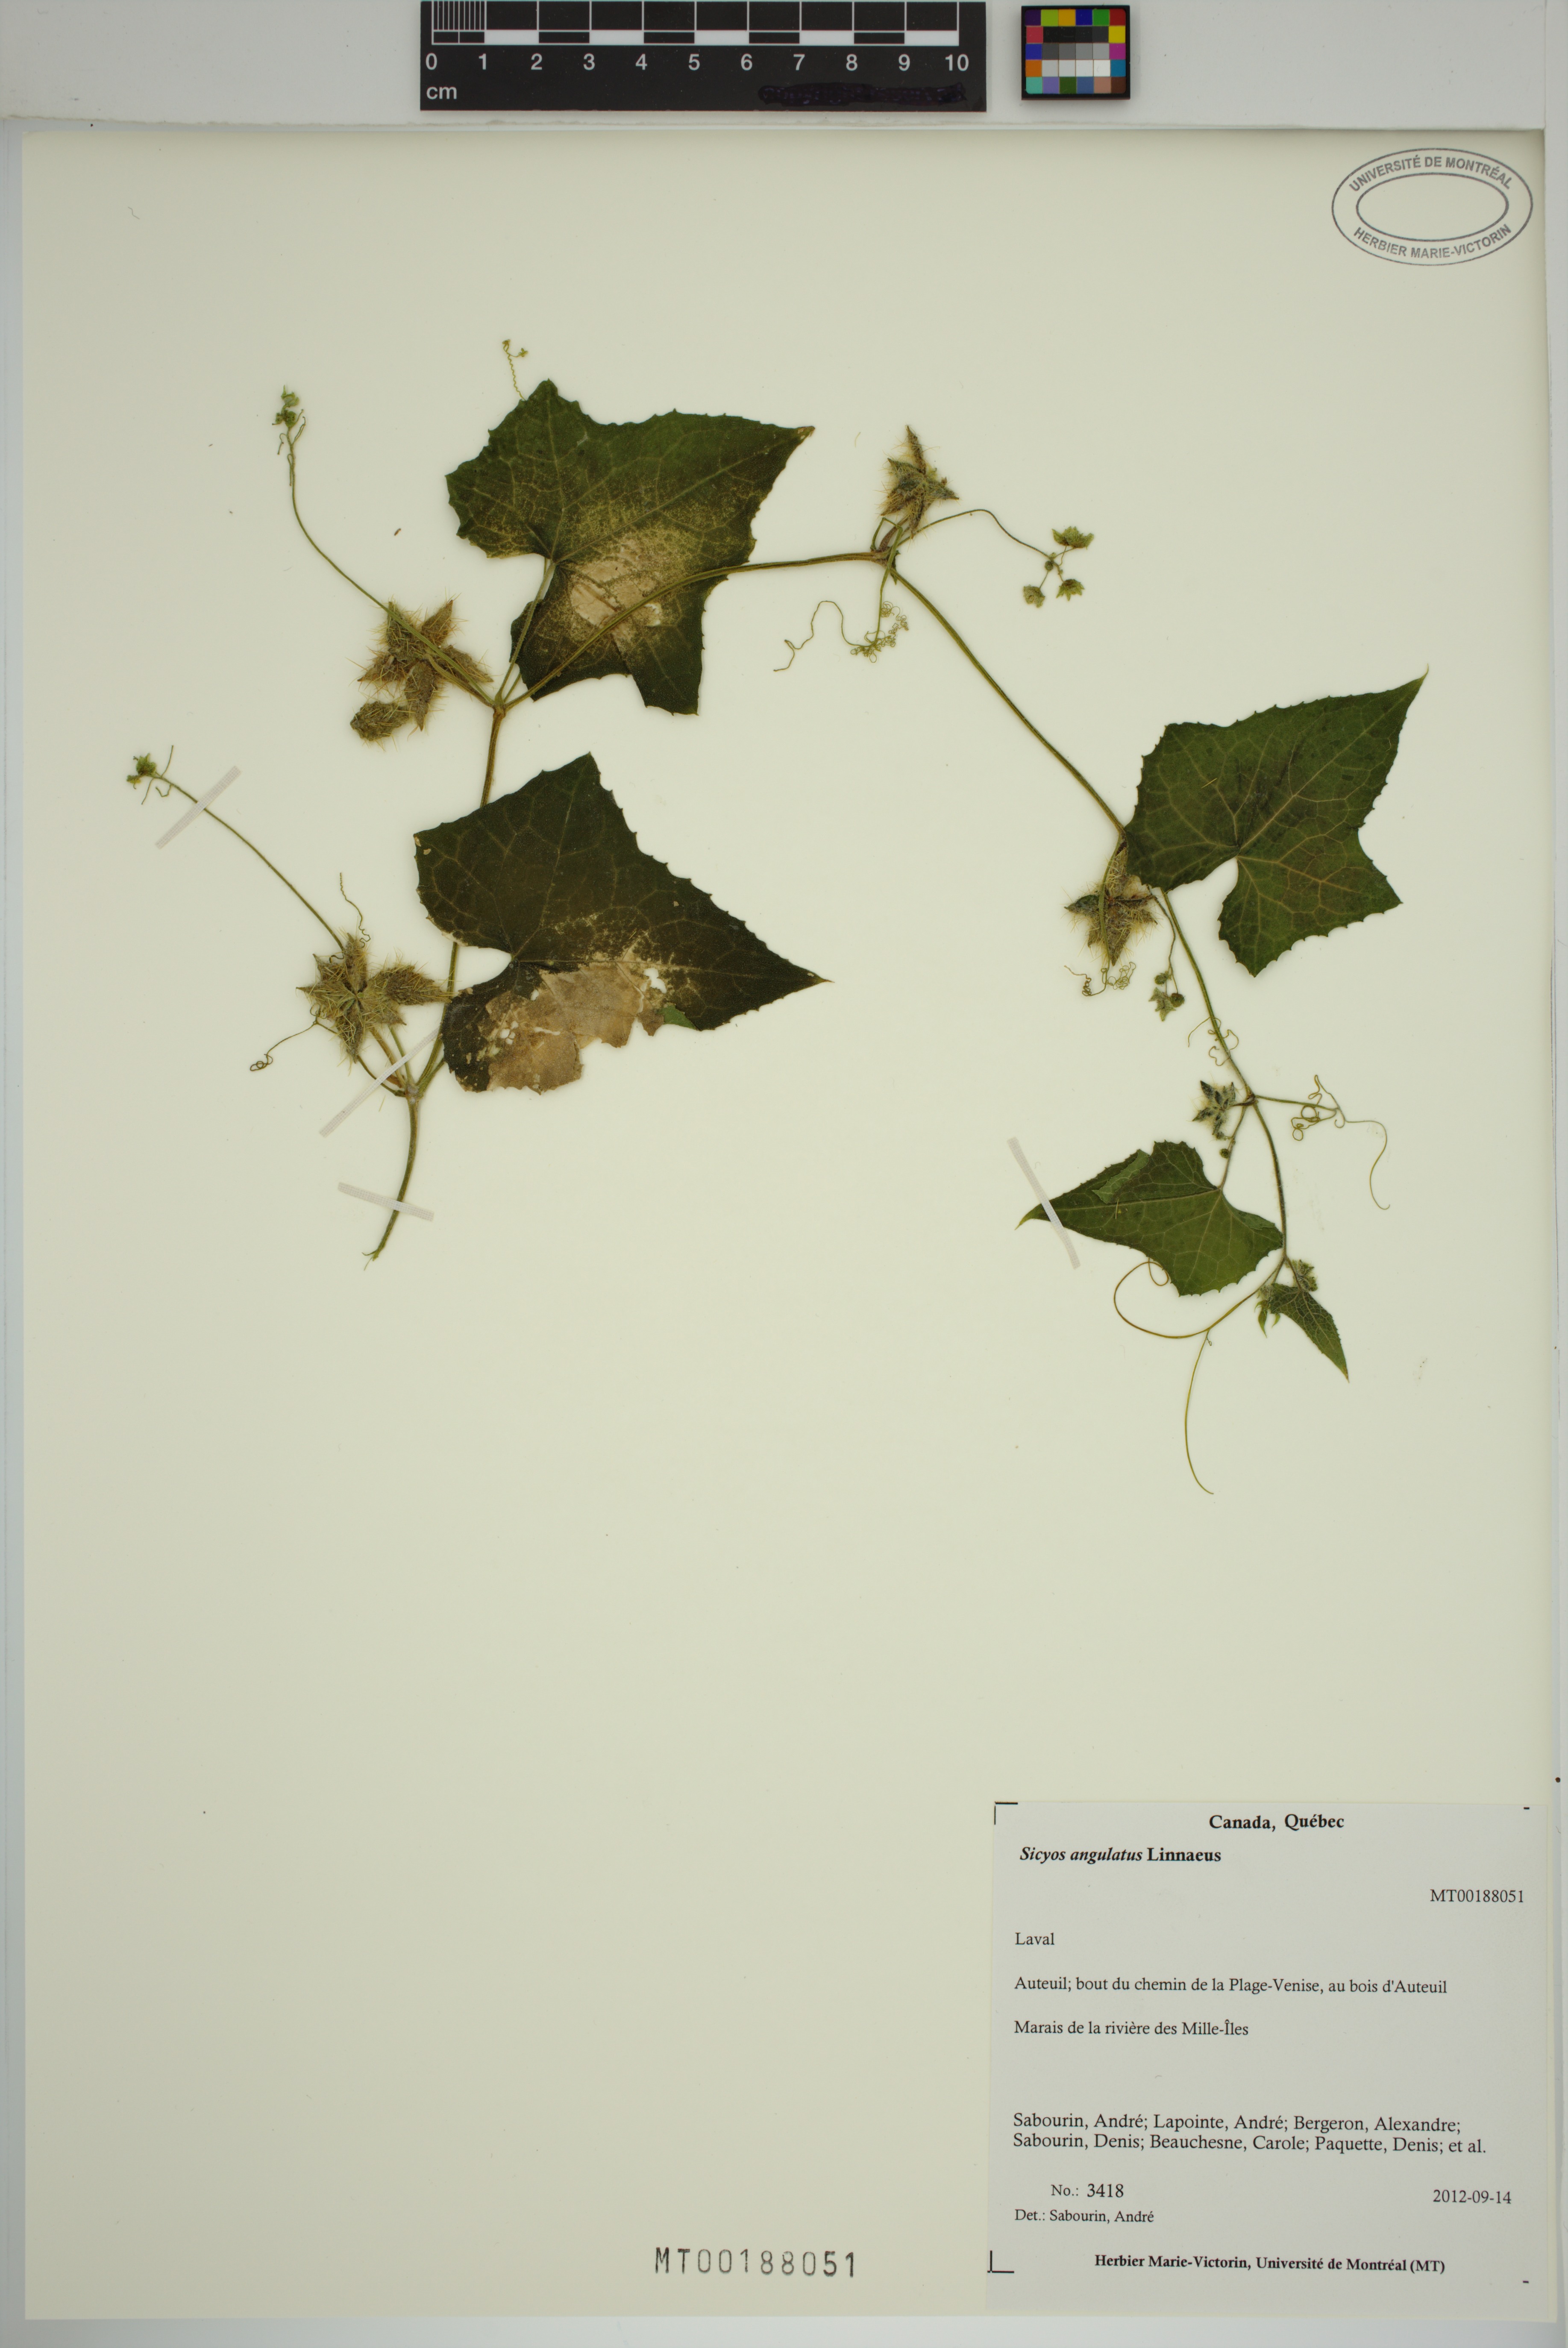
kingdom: Plantae
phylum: Tracheophyta
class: Magnoliopsida
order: Cucurbitales
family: Cucurbitaceae
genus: Sicyos
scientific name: Sicyos angulatus
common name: Angled burr cucumber
